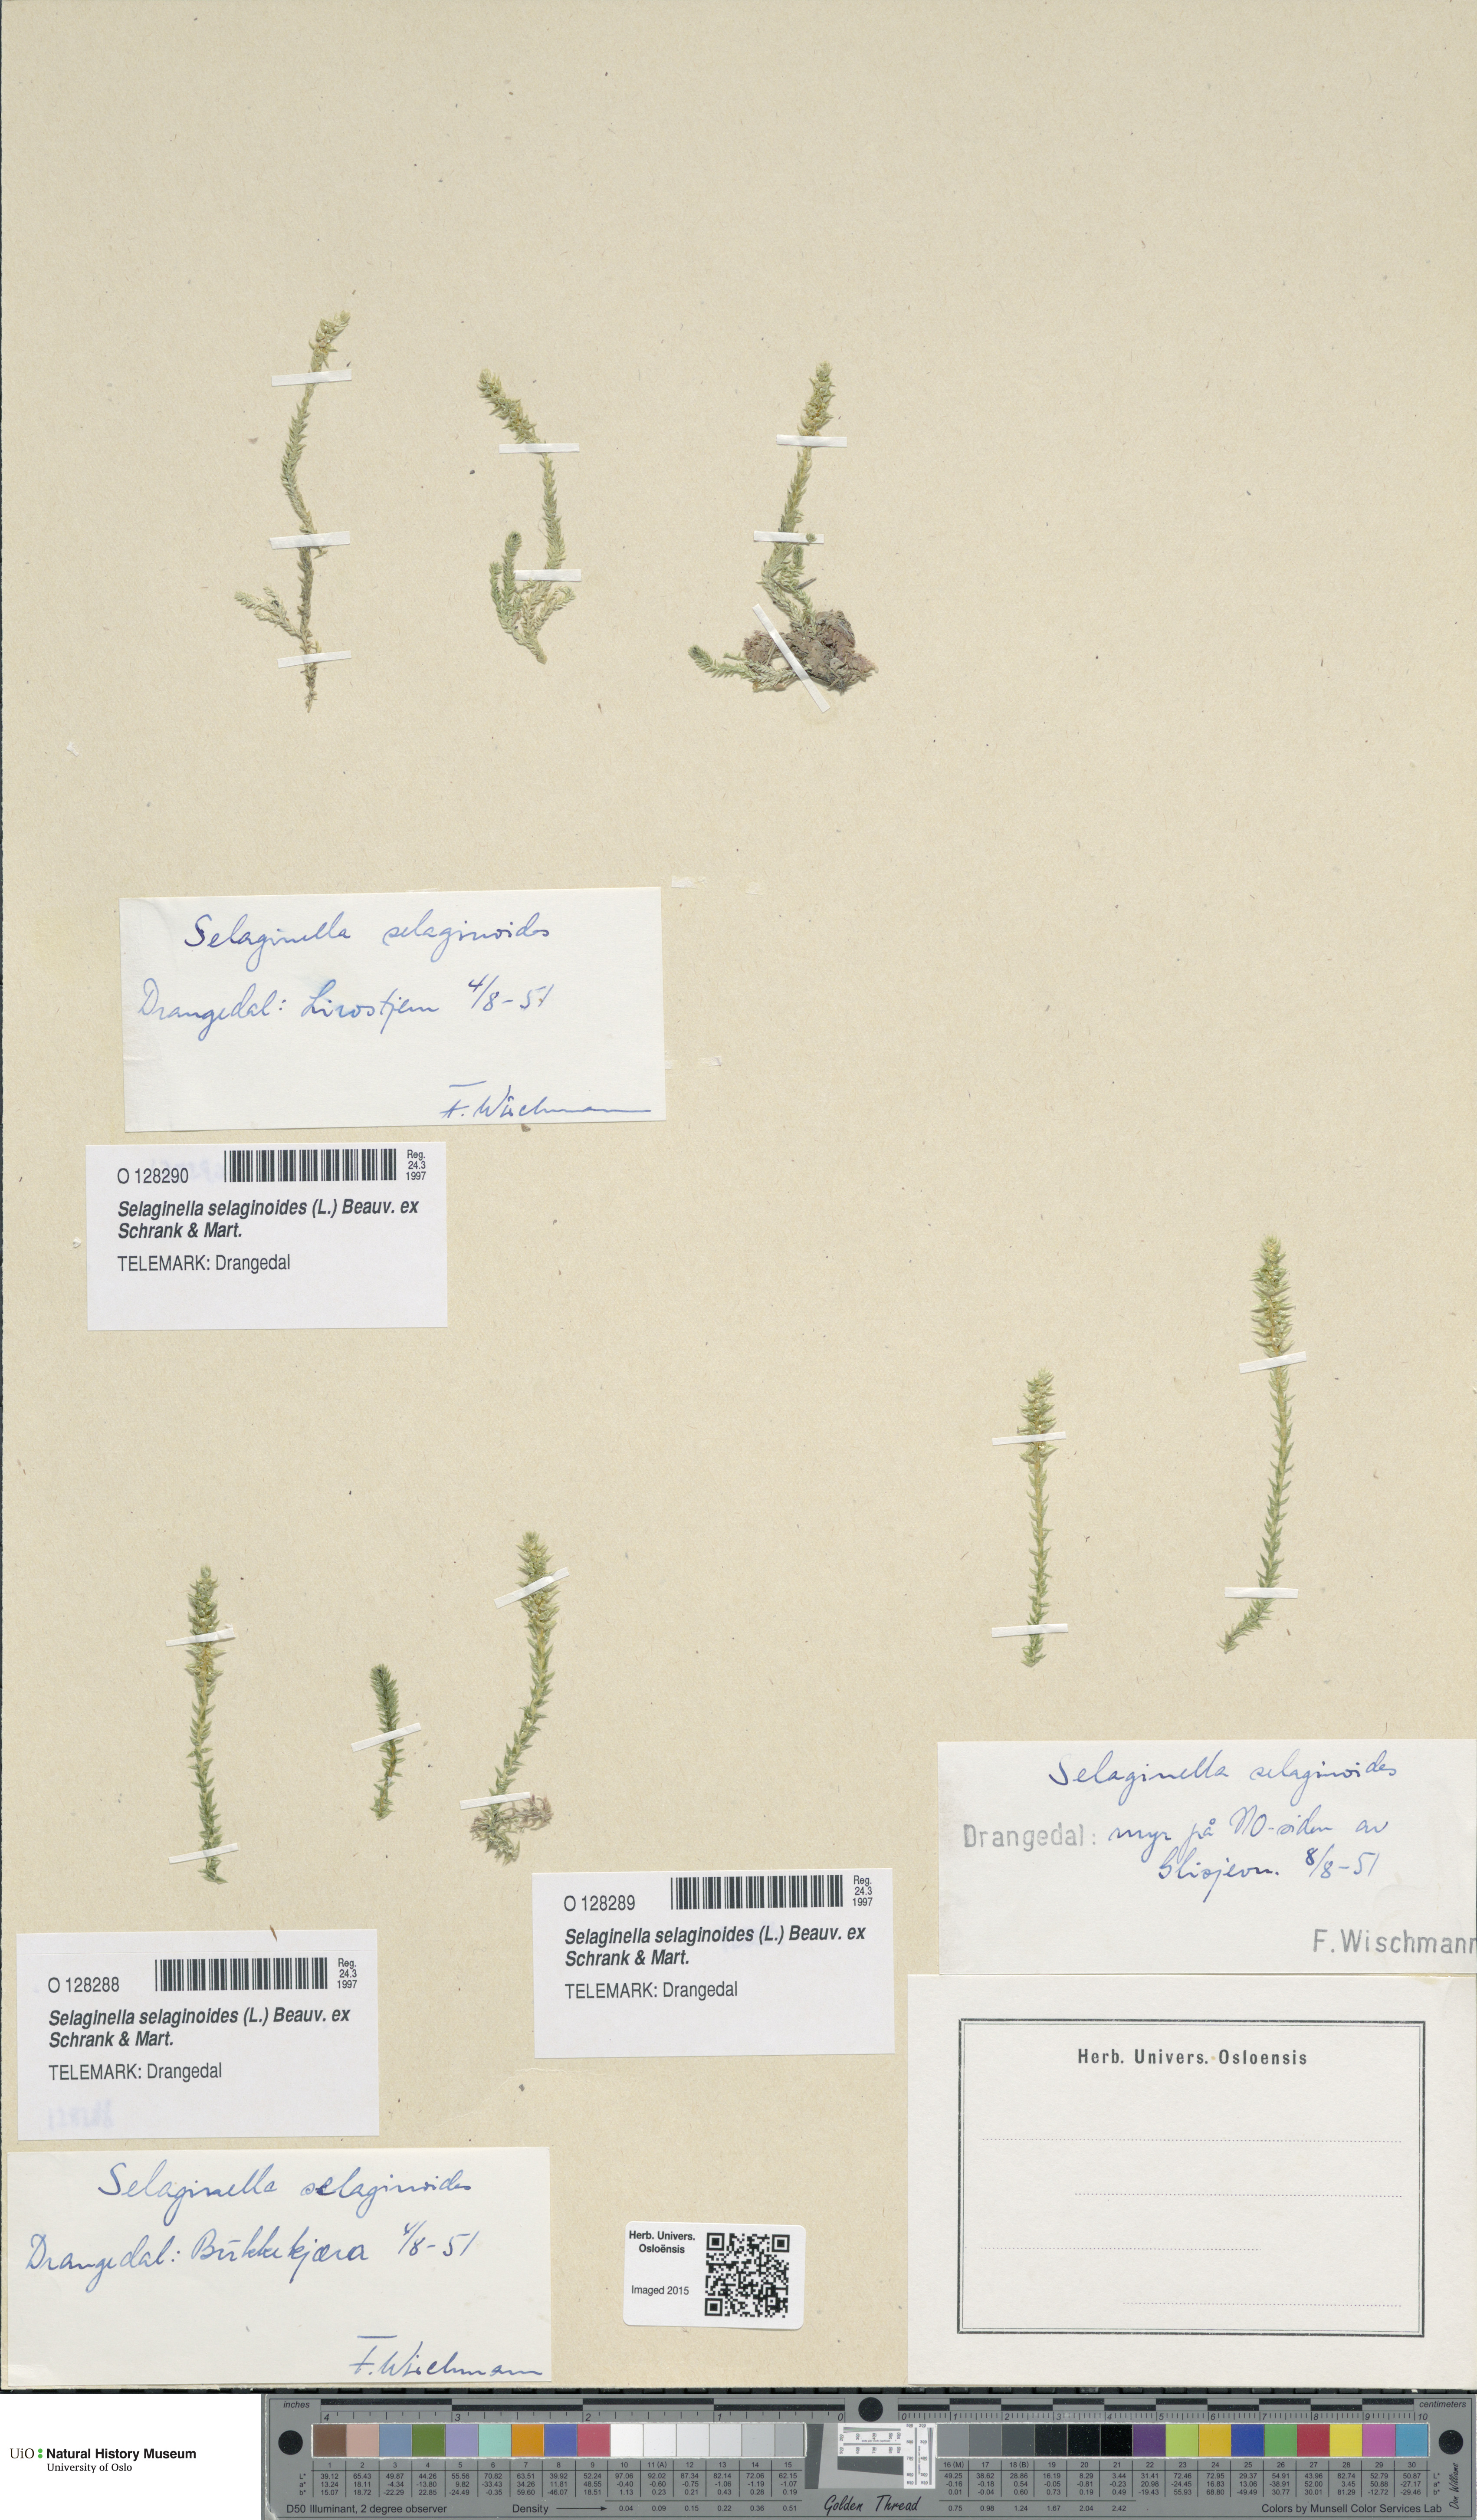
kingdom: Plantae
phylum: Tracheophyta
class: Lycopodiopsida
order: Selaginellales
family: Selaginellaceae
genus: Selaginella
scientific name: Selaginella selaginoides
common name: Prickly mountain-moss
